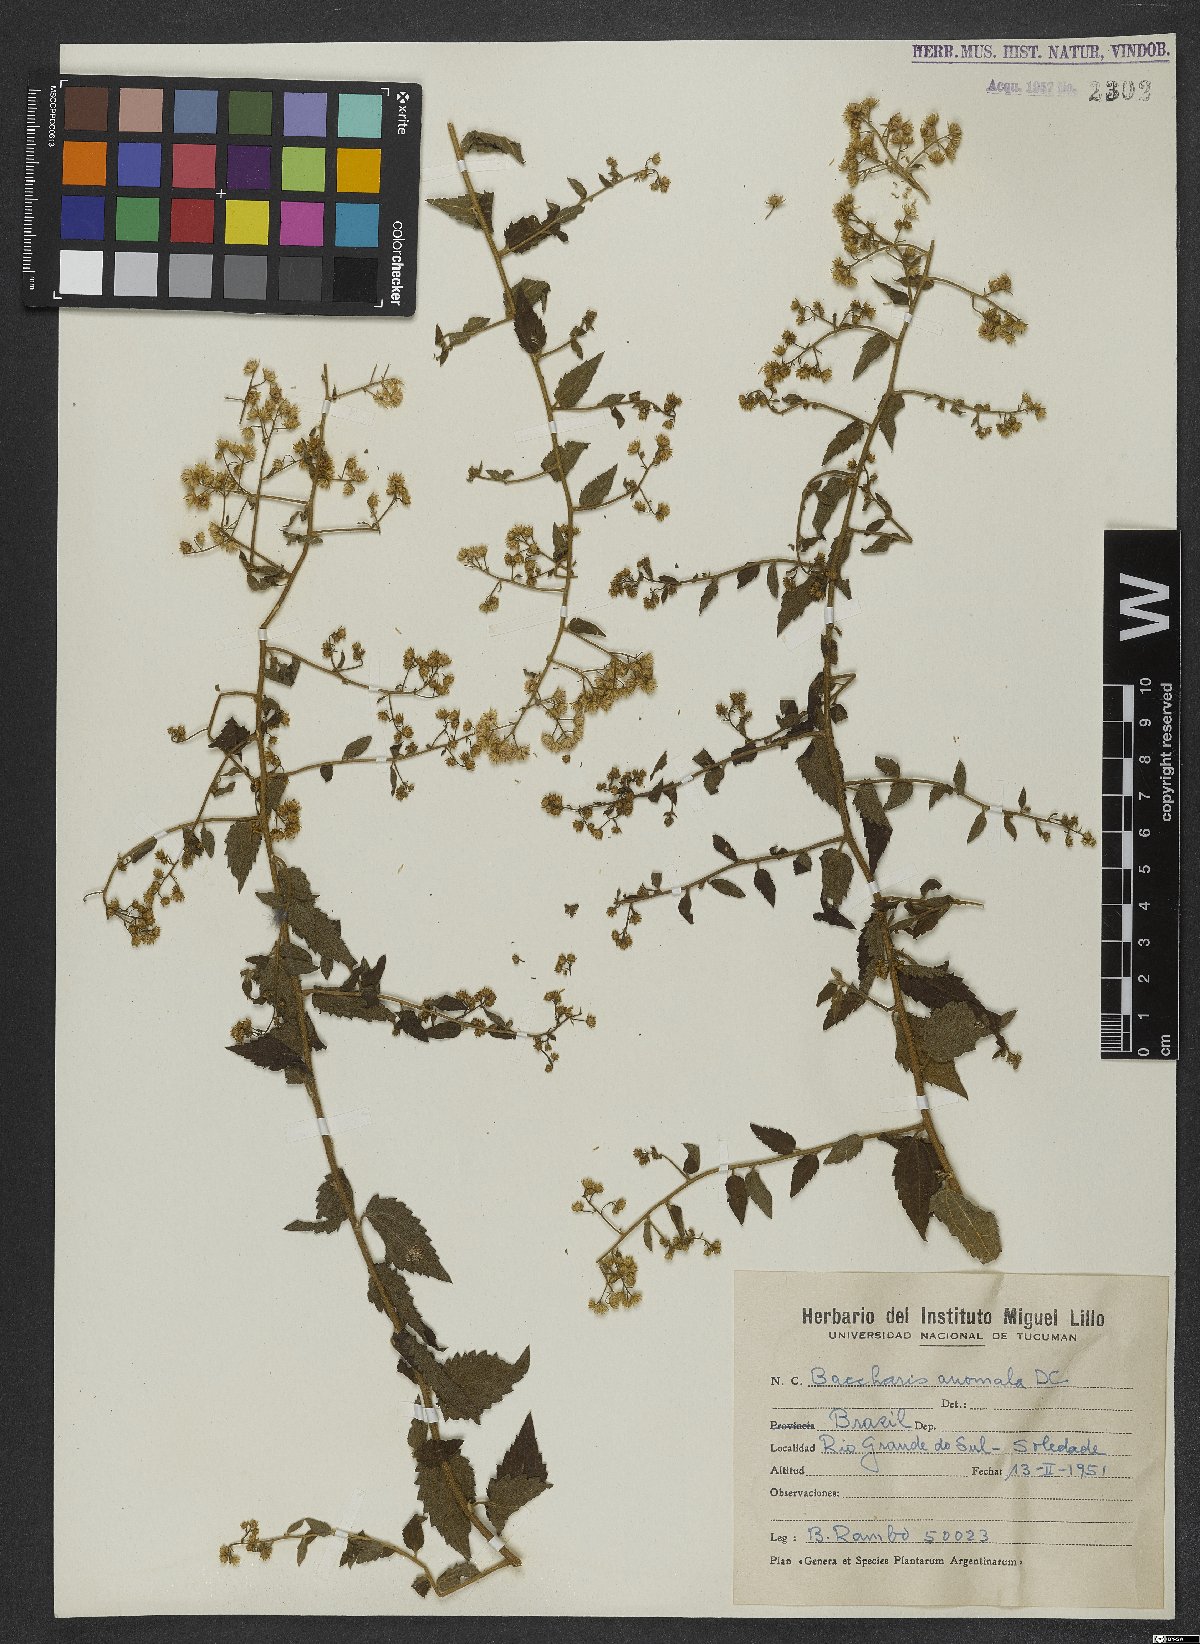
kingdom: Plantae
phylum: Tracheophyta
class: Magnoliopsida
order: Asterales
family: Asteraceae
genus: Baccharis
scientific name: Baccharis anomala
